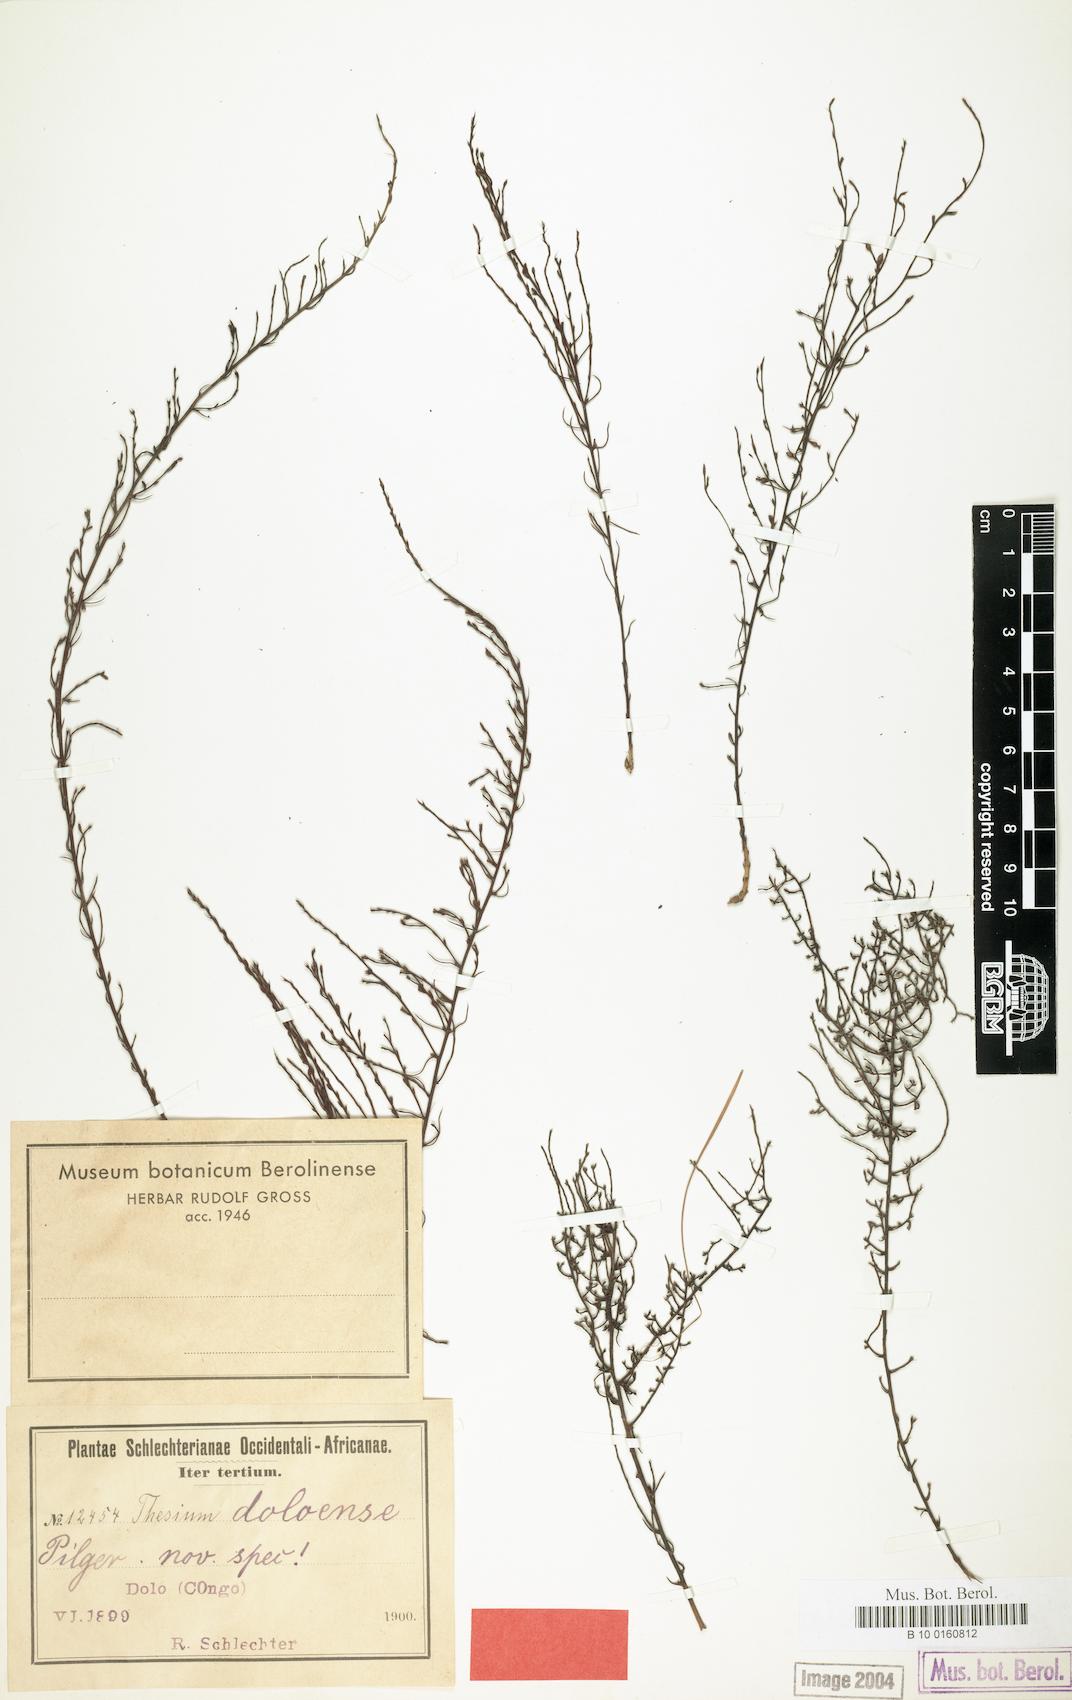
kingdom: Plantae
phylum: Tracheophyta
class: Magnoliopsida
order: Santalales
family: Thesiaceae
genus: Thesium
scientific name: Thesium doloense
